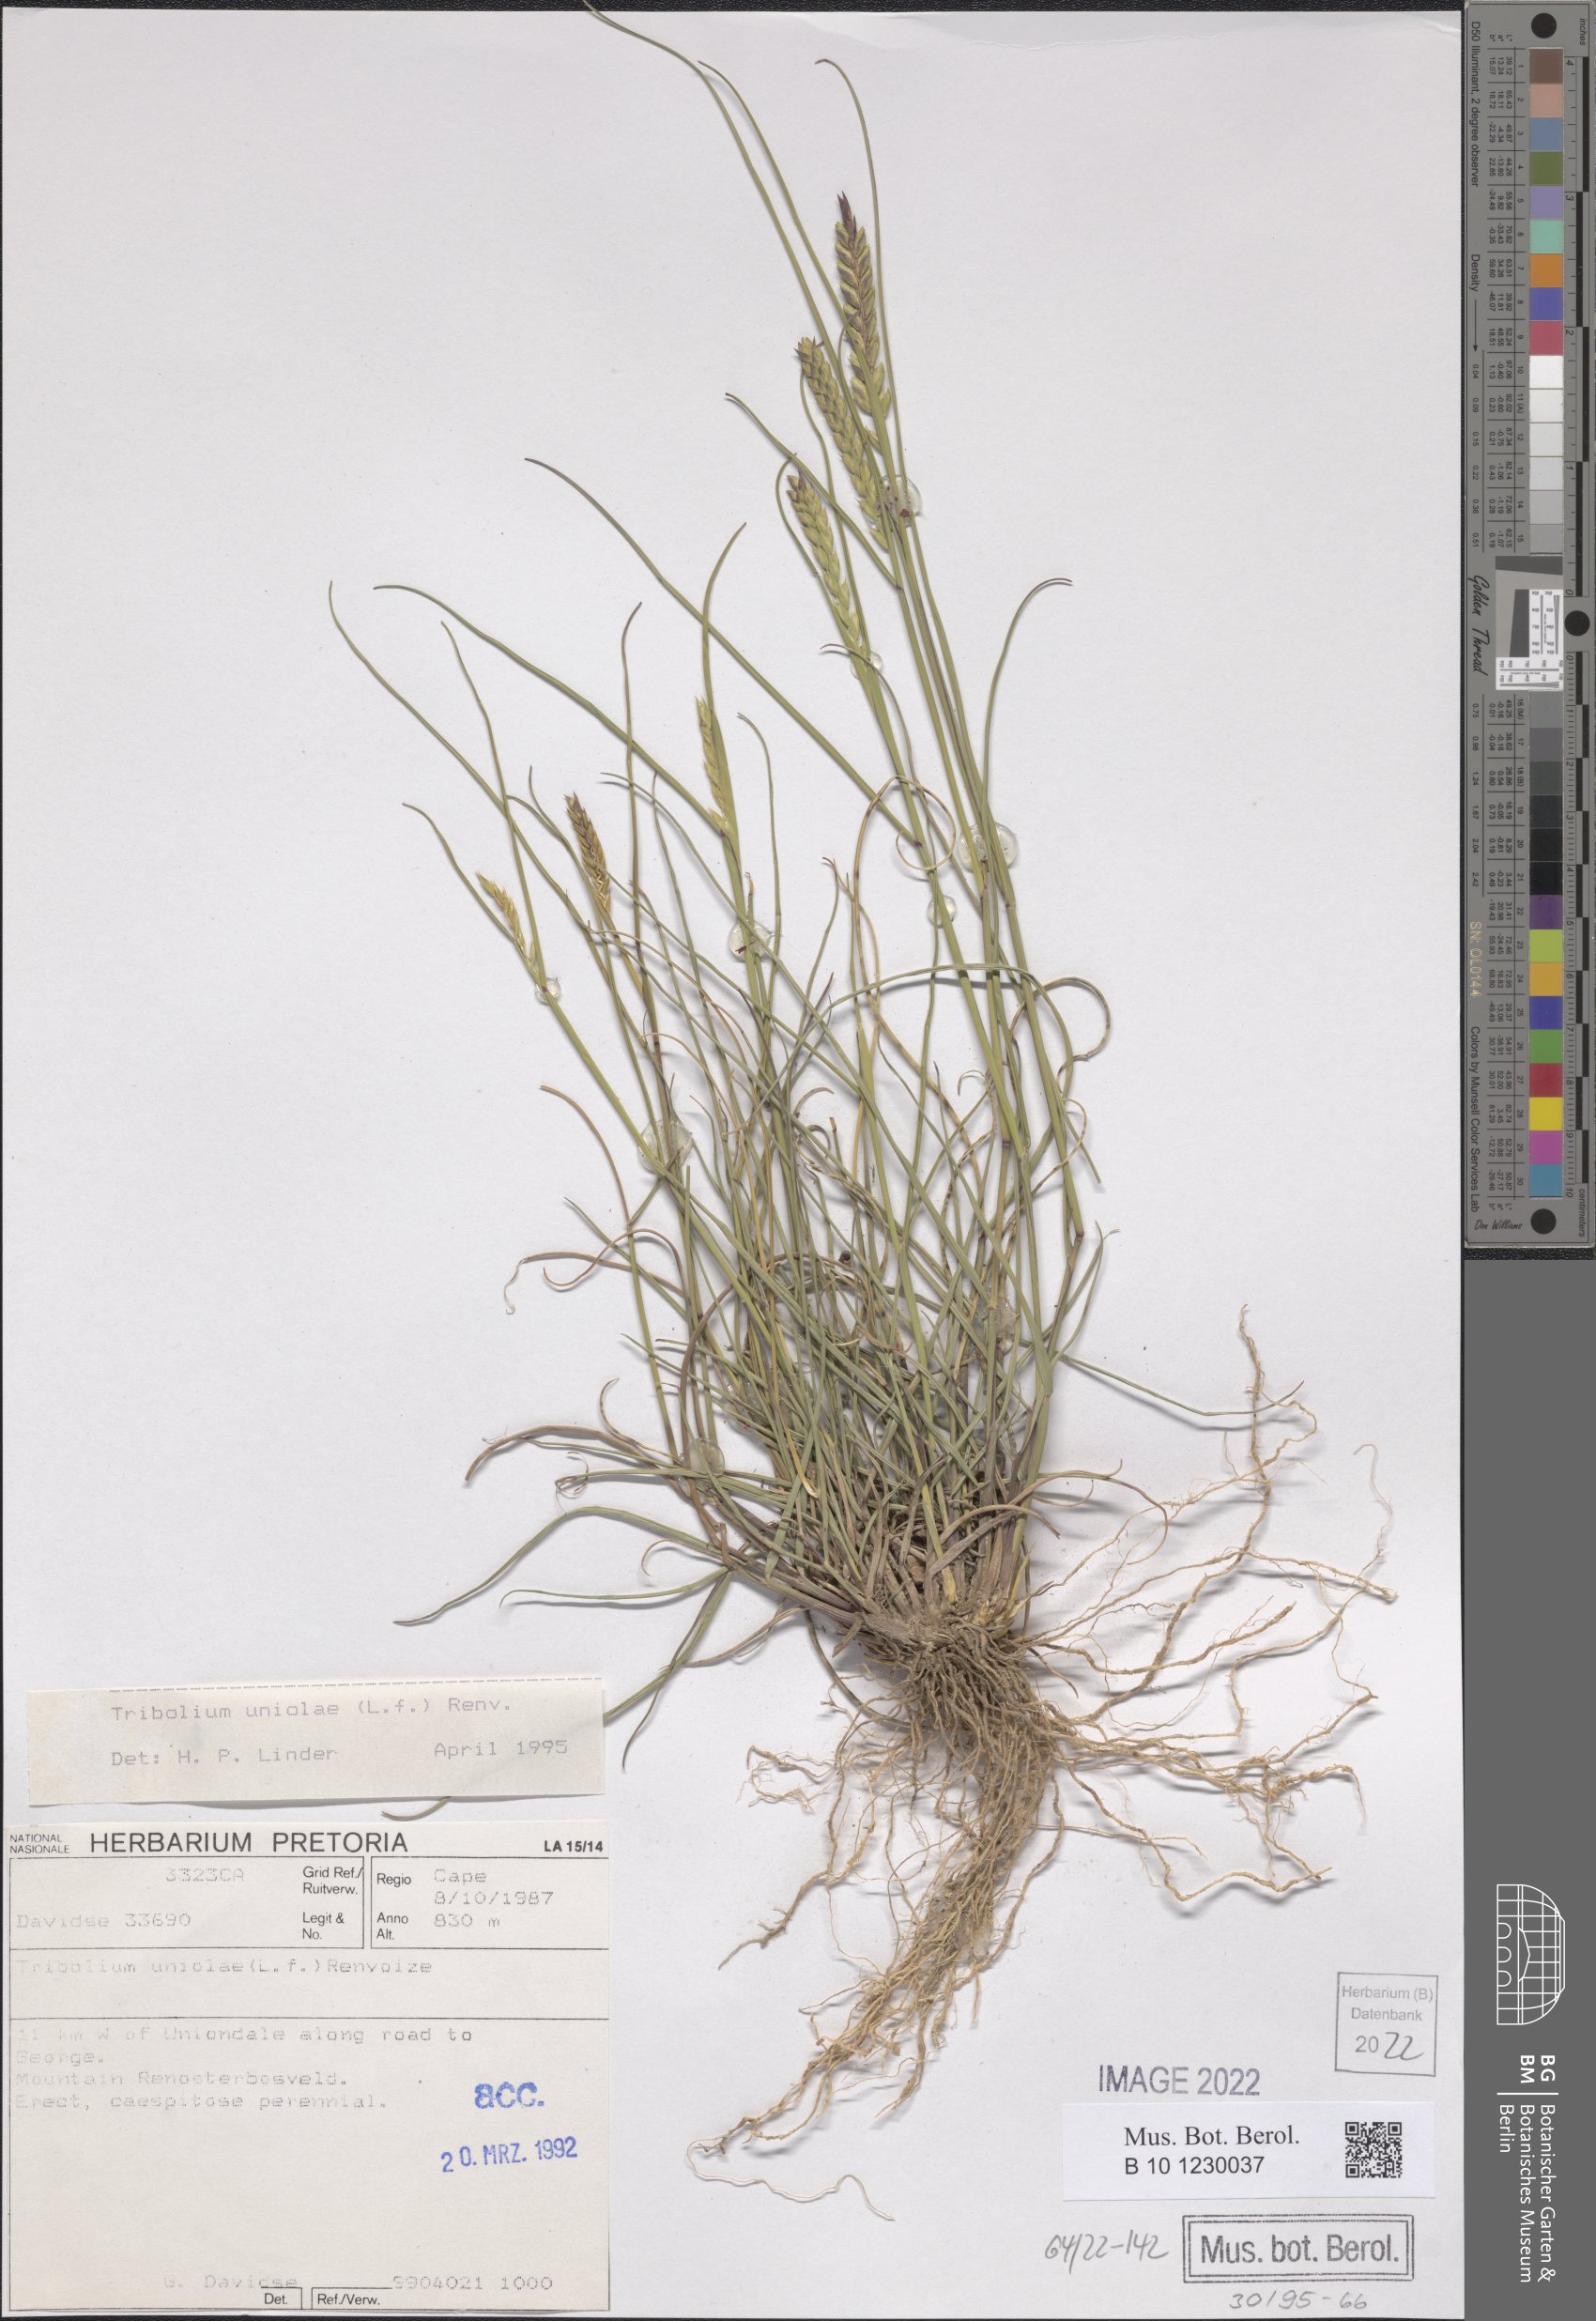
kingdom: Plantae
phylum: Tracheophyta
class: Liliopsida
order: Poales
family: Poaceae
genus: Tribolium
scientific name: Tribolium uniolae
